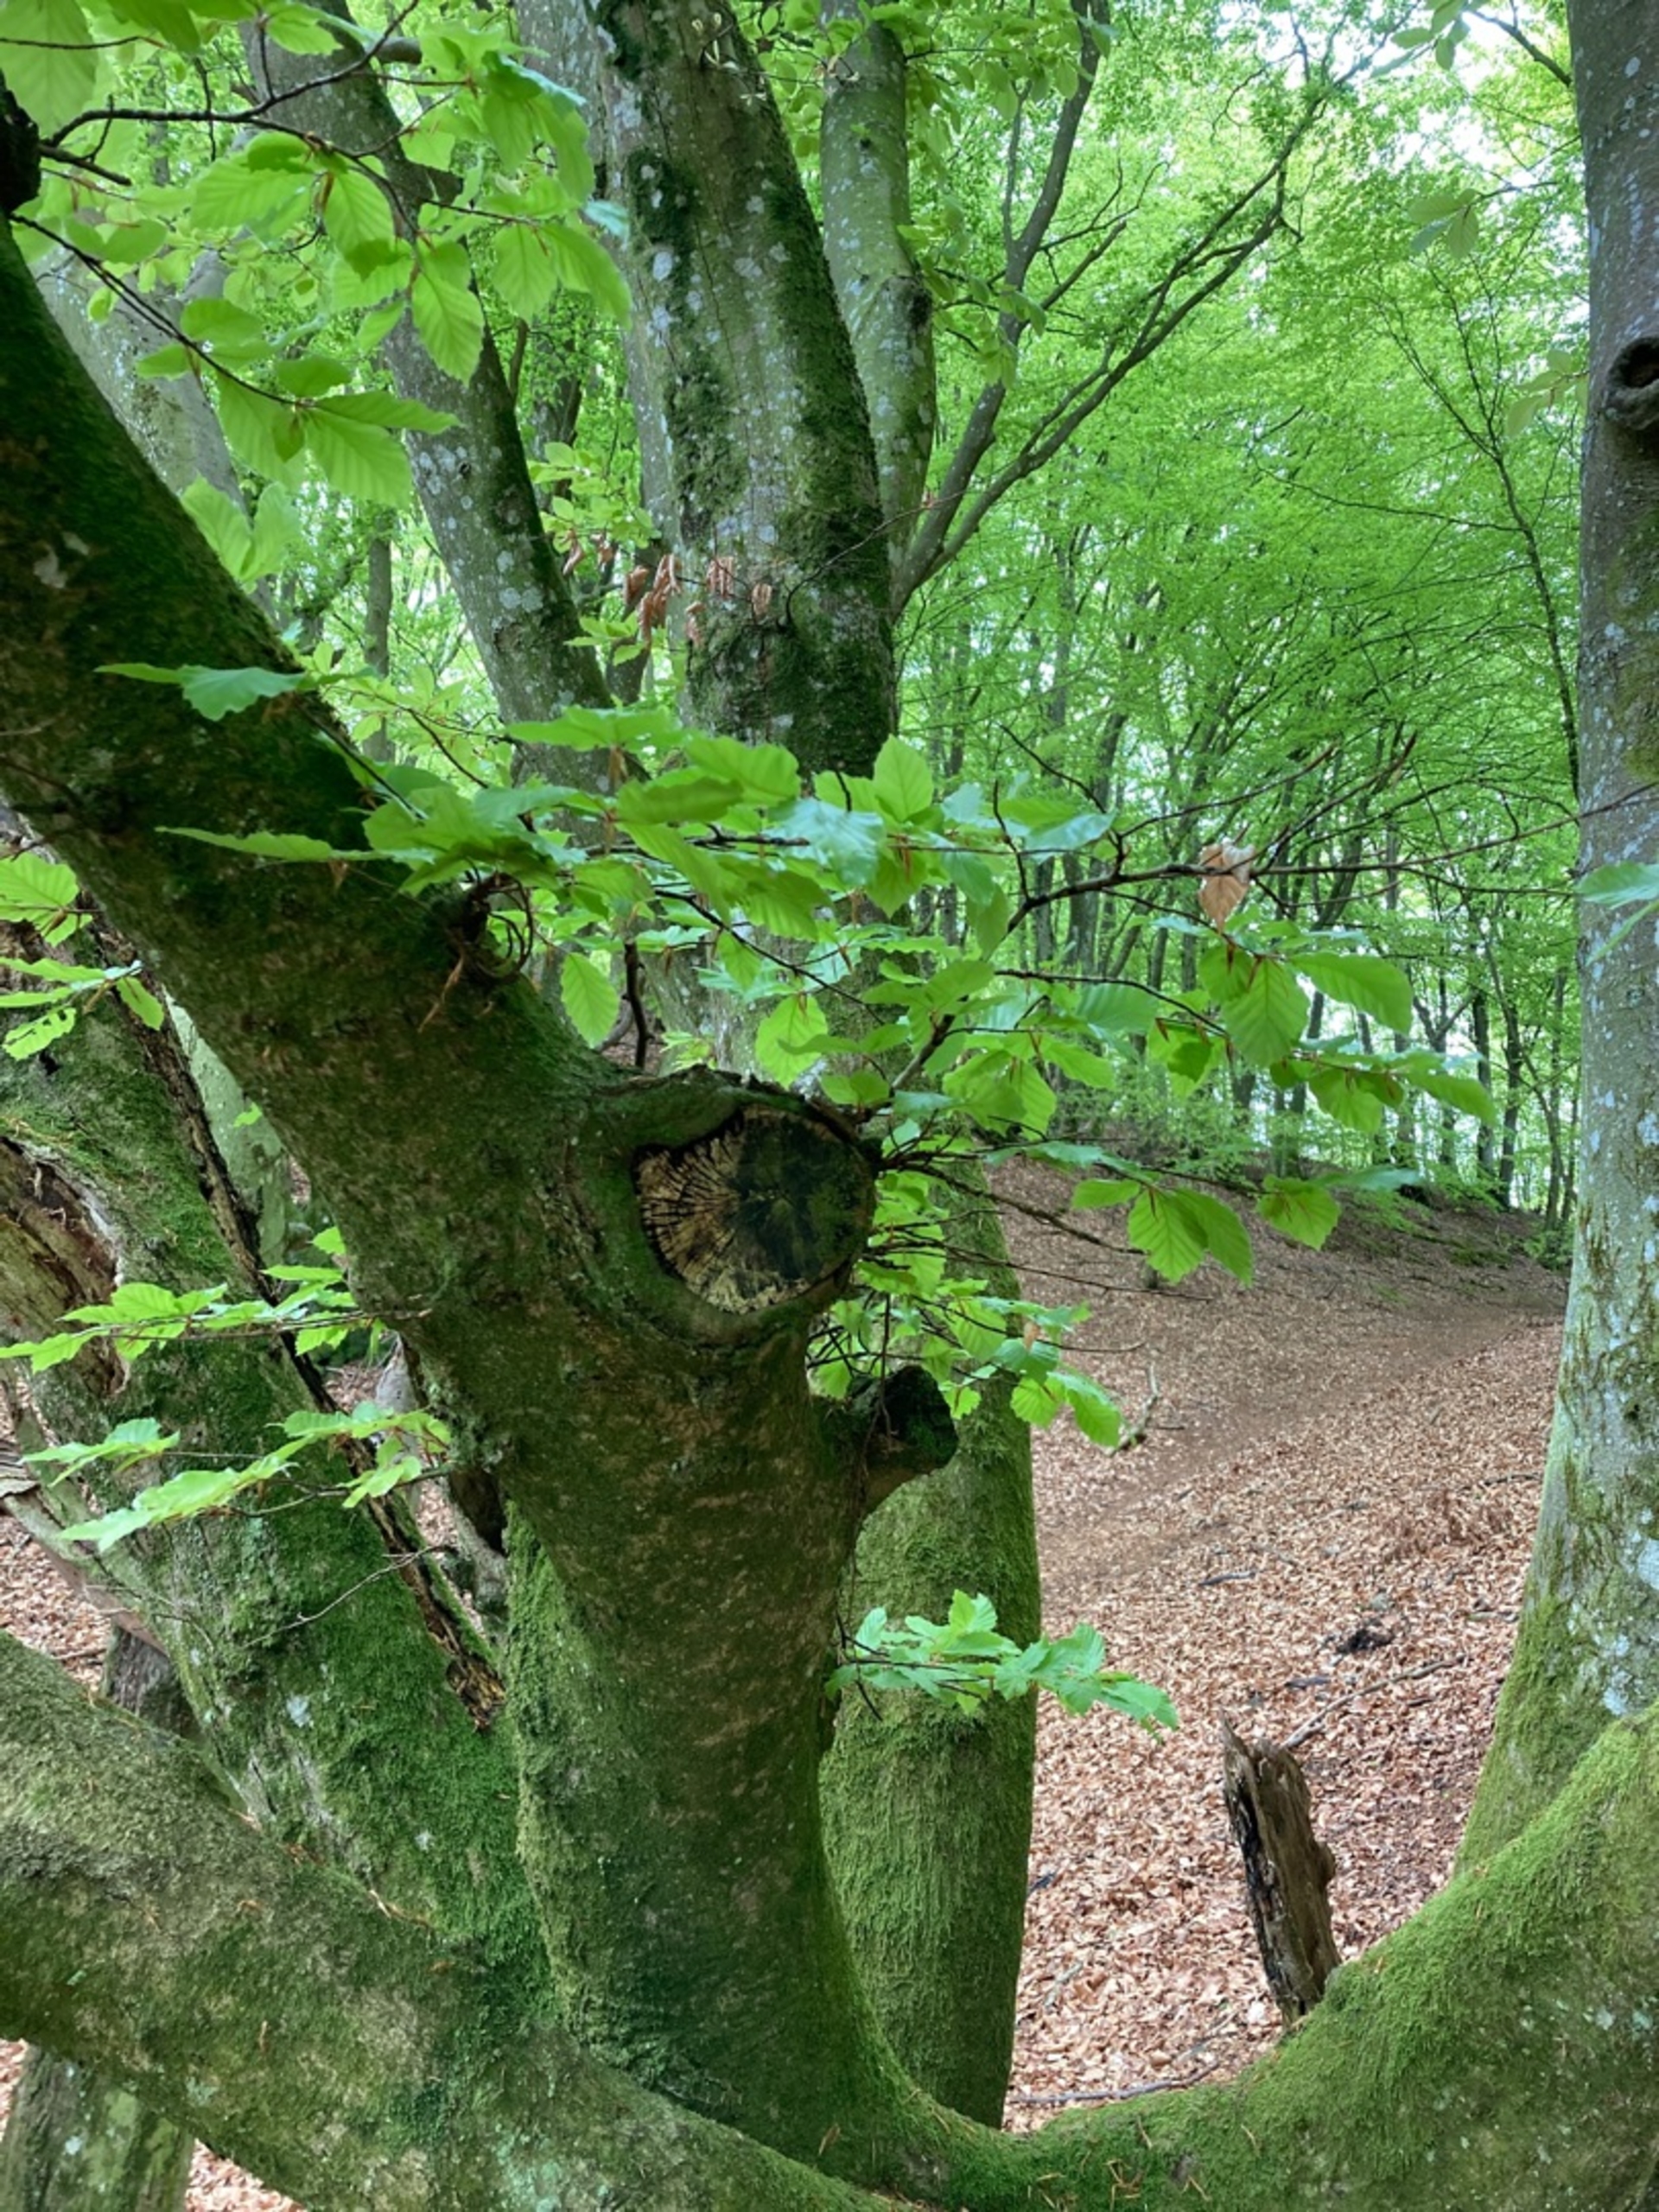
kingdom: Plantae
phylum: Tracheophyta
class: Magnoliopsida
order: Fagales
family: Fagaceae
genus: Fagus
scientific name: Fagus sylvatica
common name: Bøg
